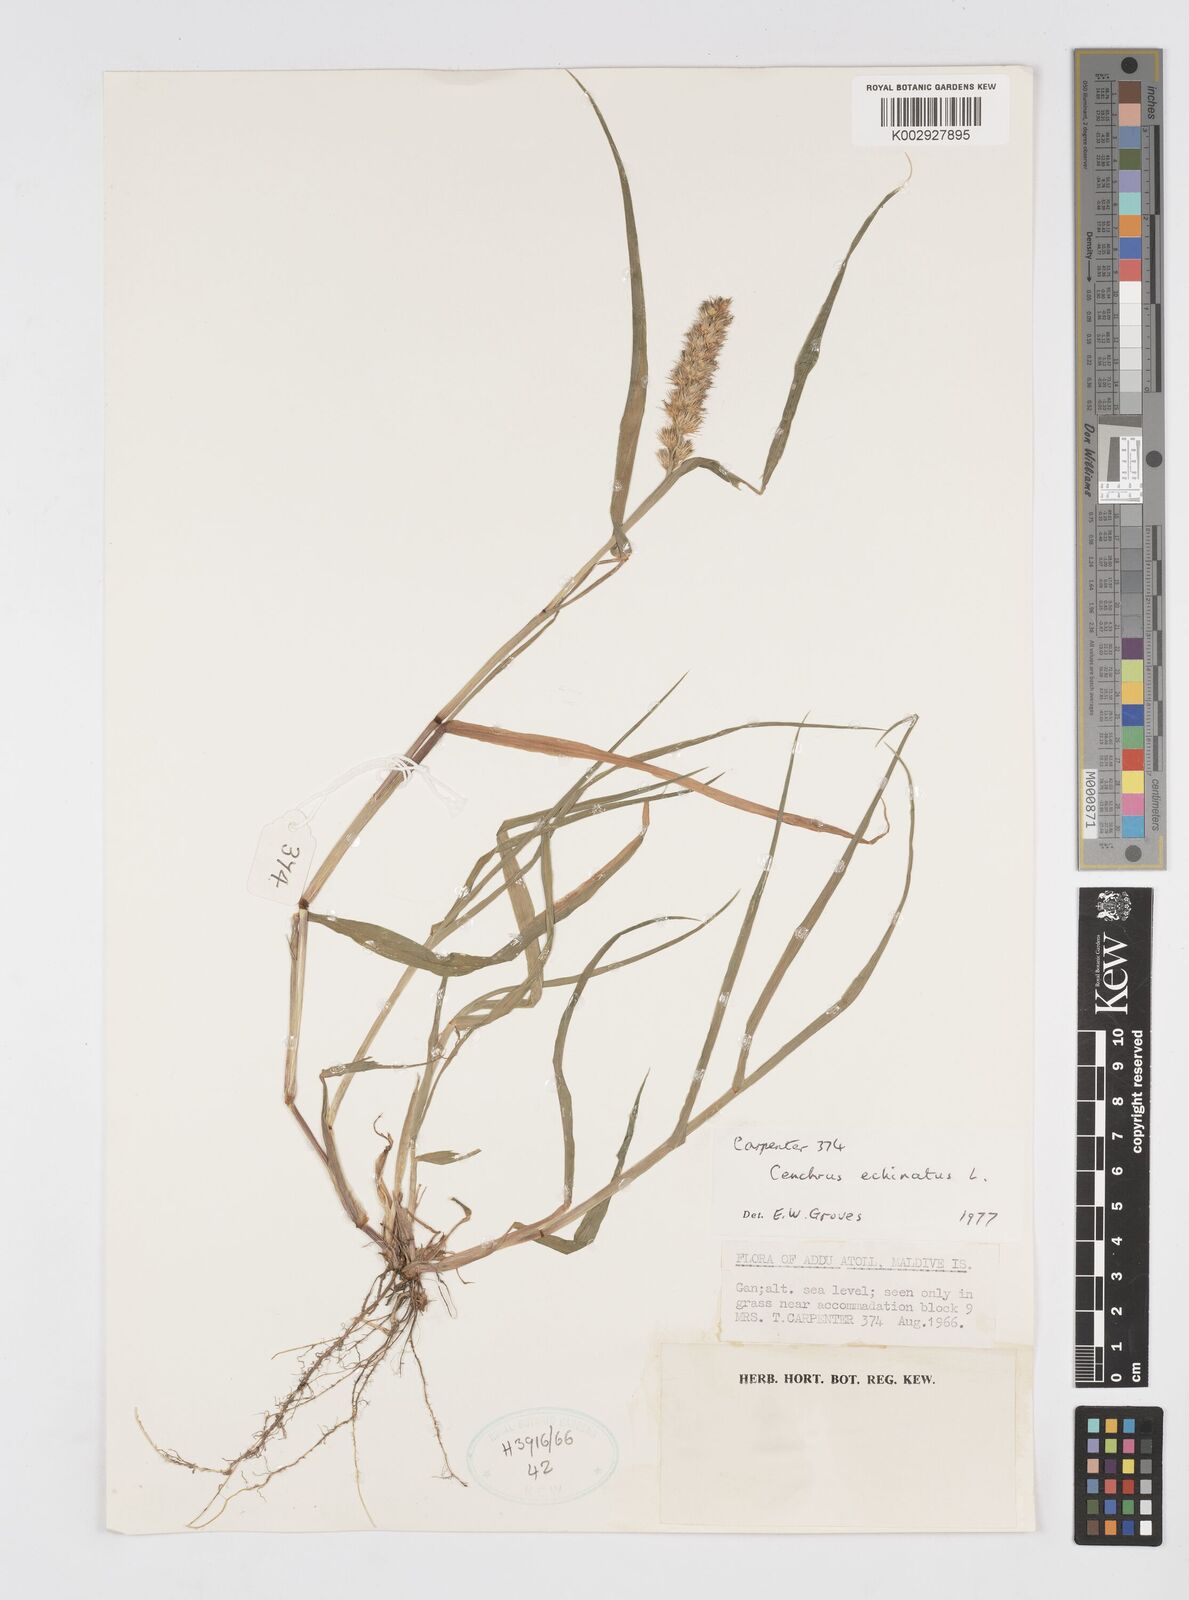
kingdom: Plantae
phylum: Tracheophyta
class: Liliopsida
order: Poales
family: Poaceae
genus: Cenchrus
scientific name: Cenchrus echinatus
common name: Southern sandbur
